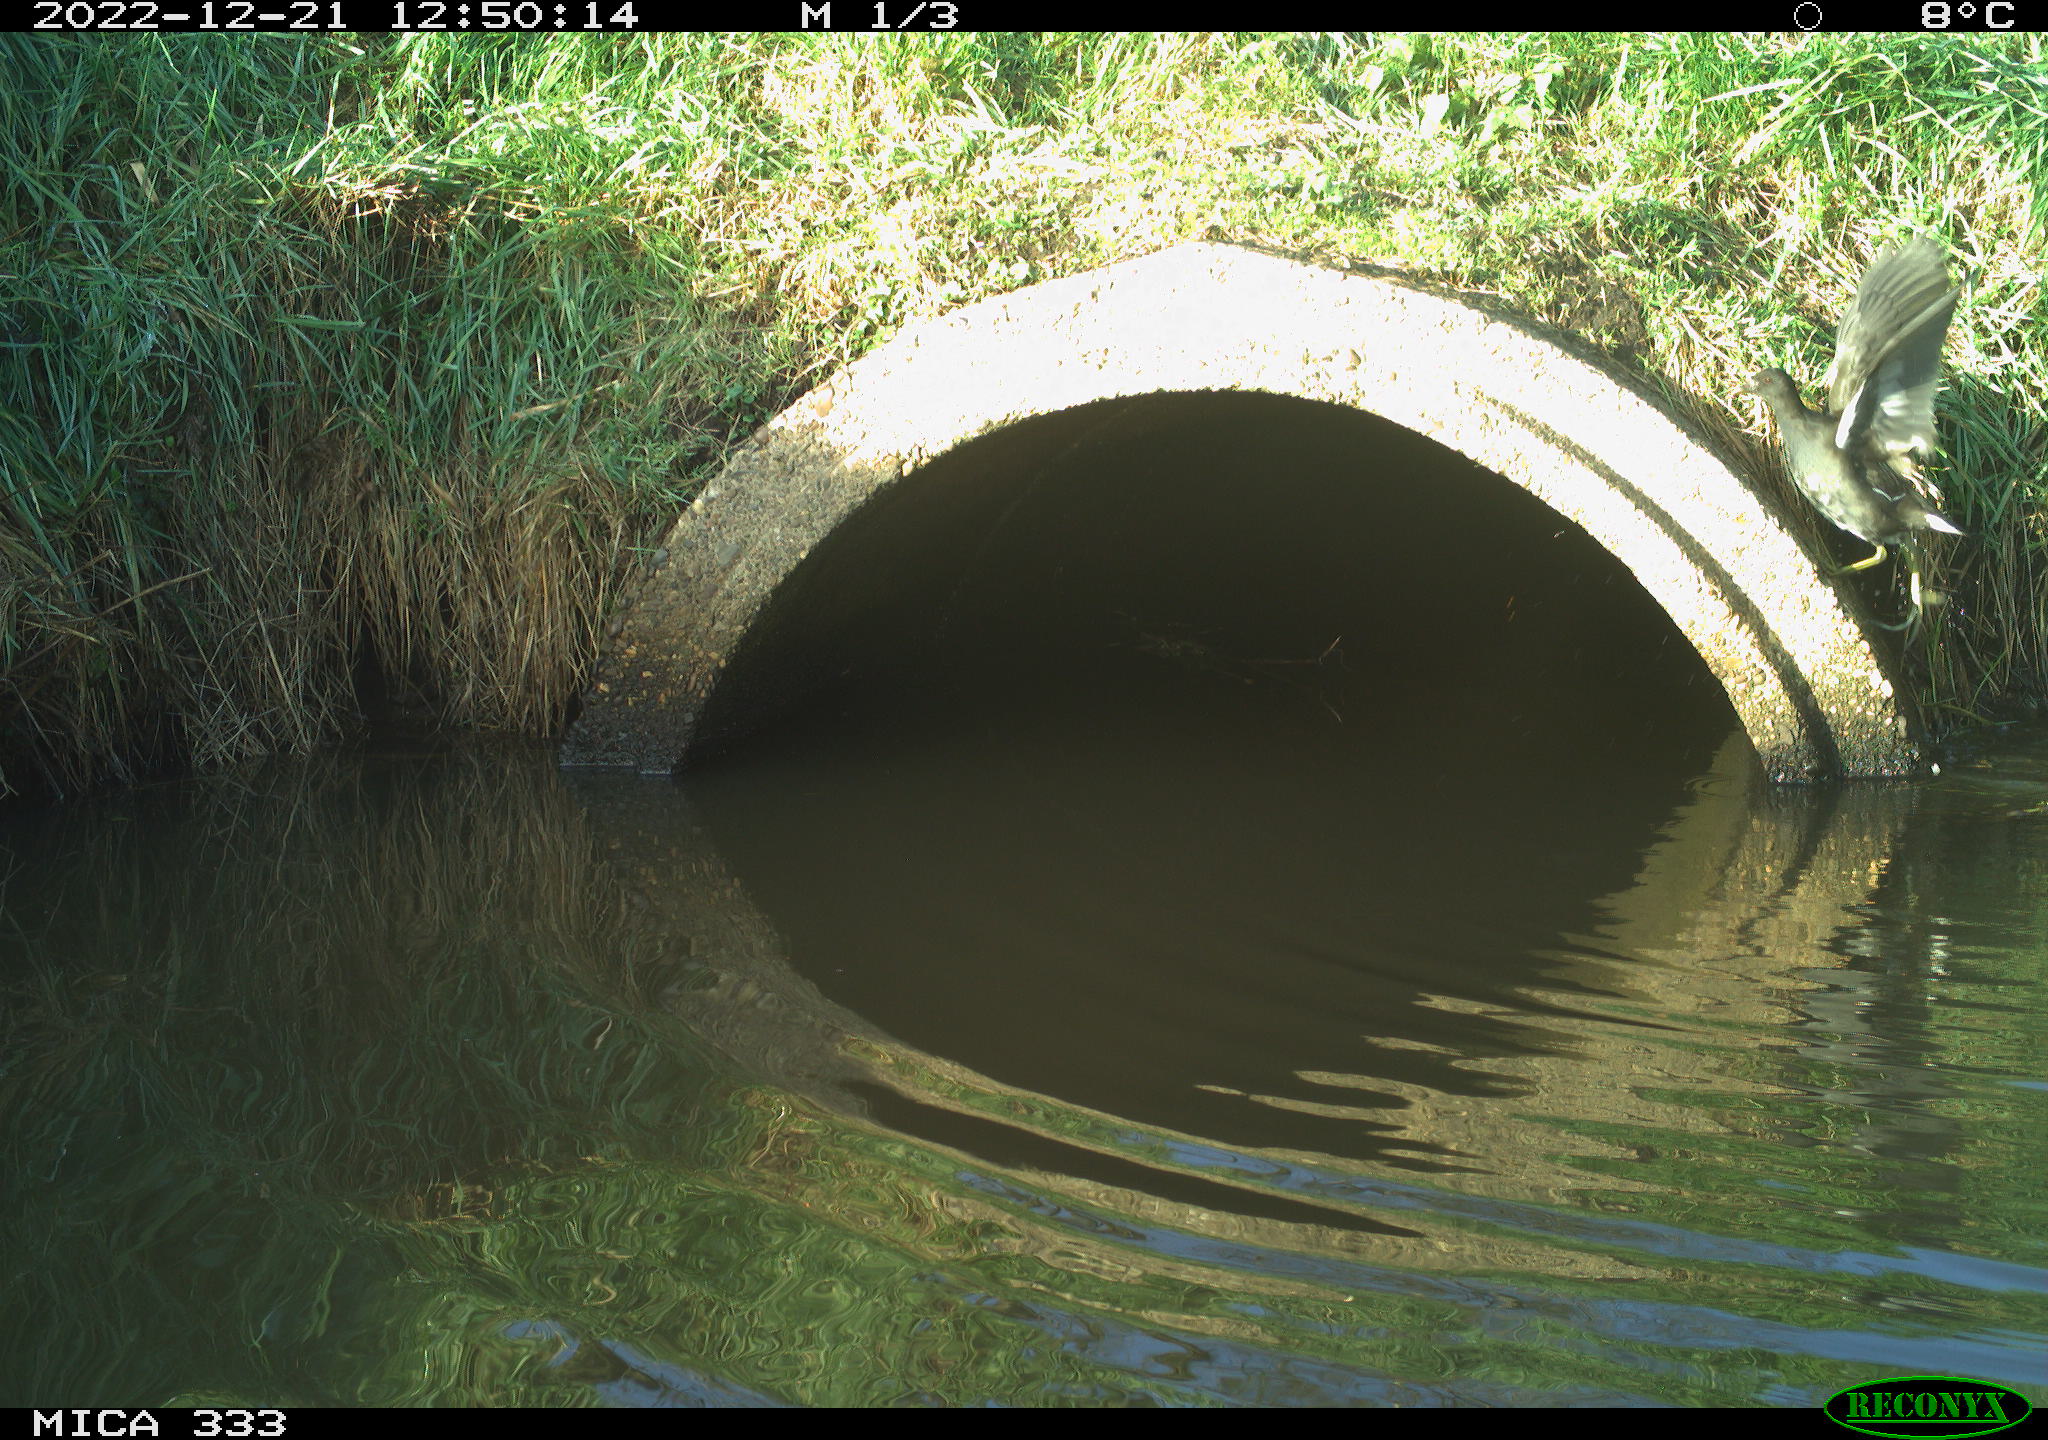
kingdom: Animalia
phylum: Chordata
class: Aves
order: Gruiformes
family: Rallidae
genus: Gallinula
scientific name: Gallinula chloropus
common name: Common moorhen
